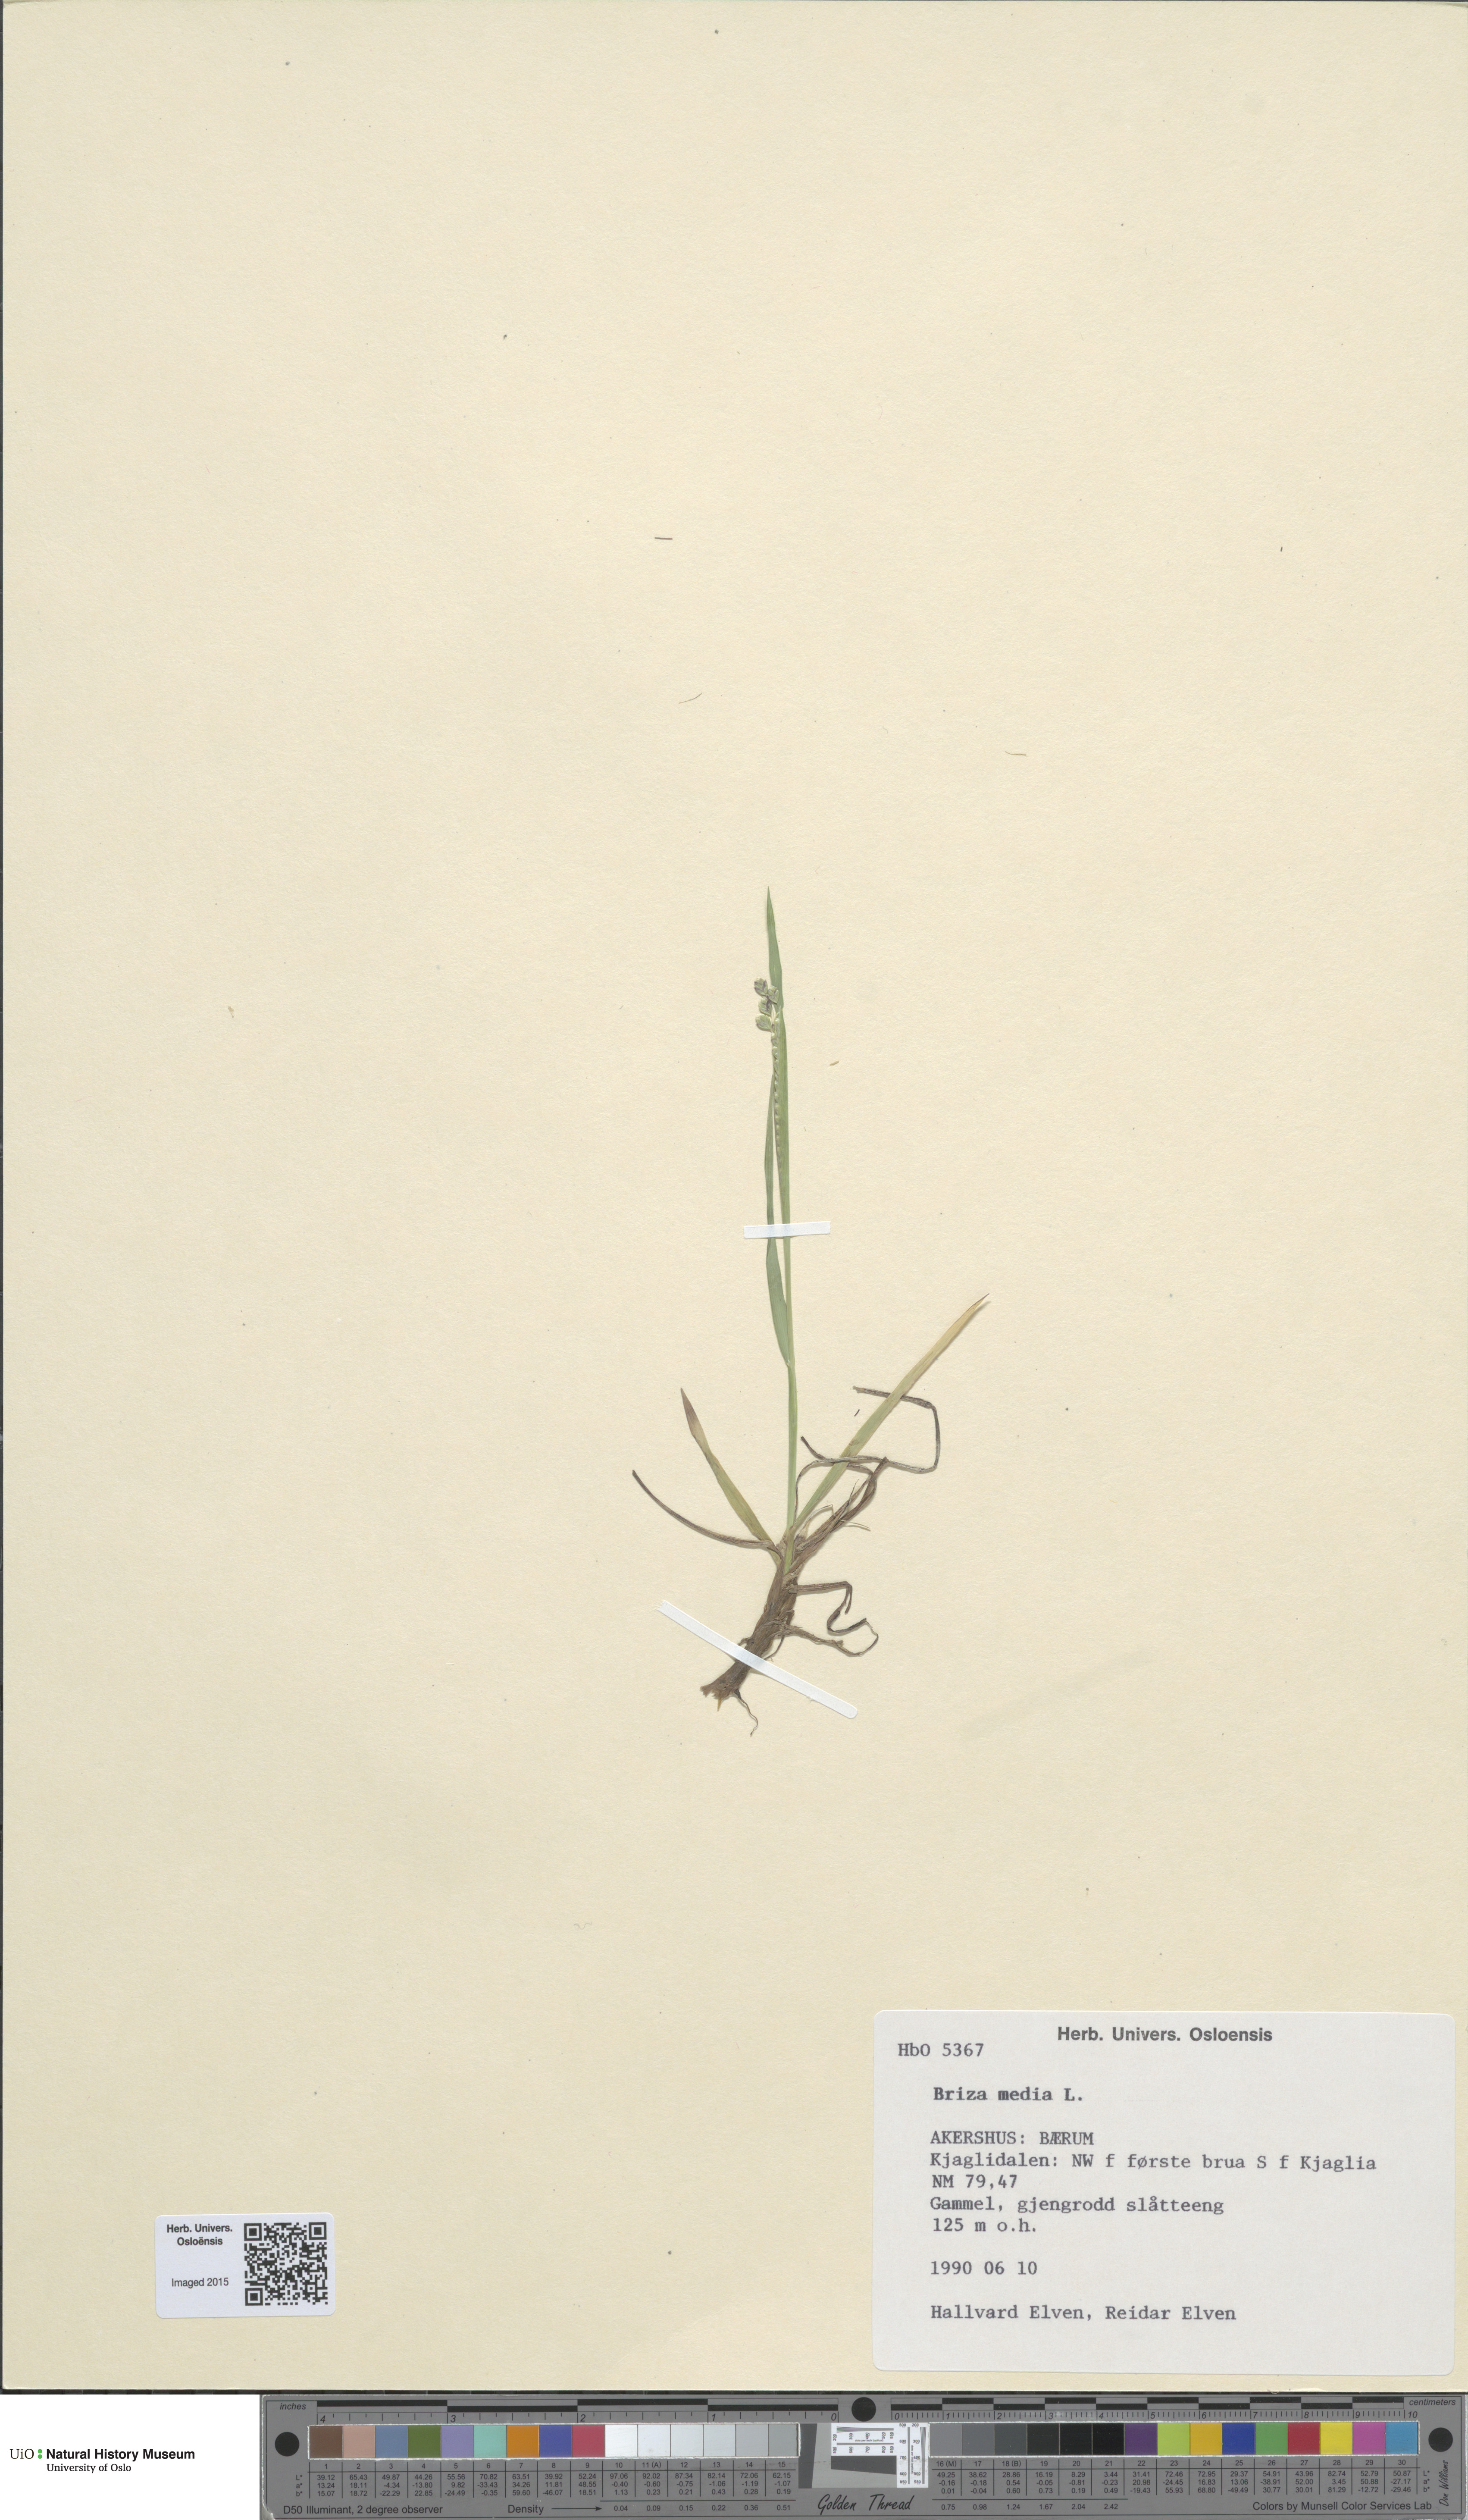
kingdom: Plantae
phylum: Tracheophyta
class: Liliopsida
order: Poales
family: Poaceae
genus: Briza
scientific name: Briza media
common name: Quaking grass
